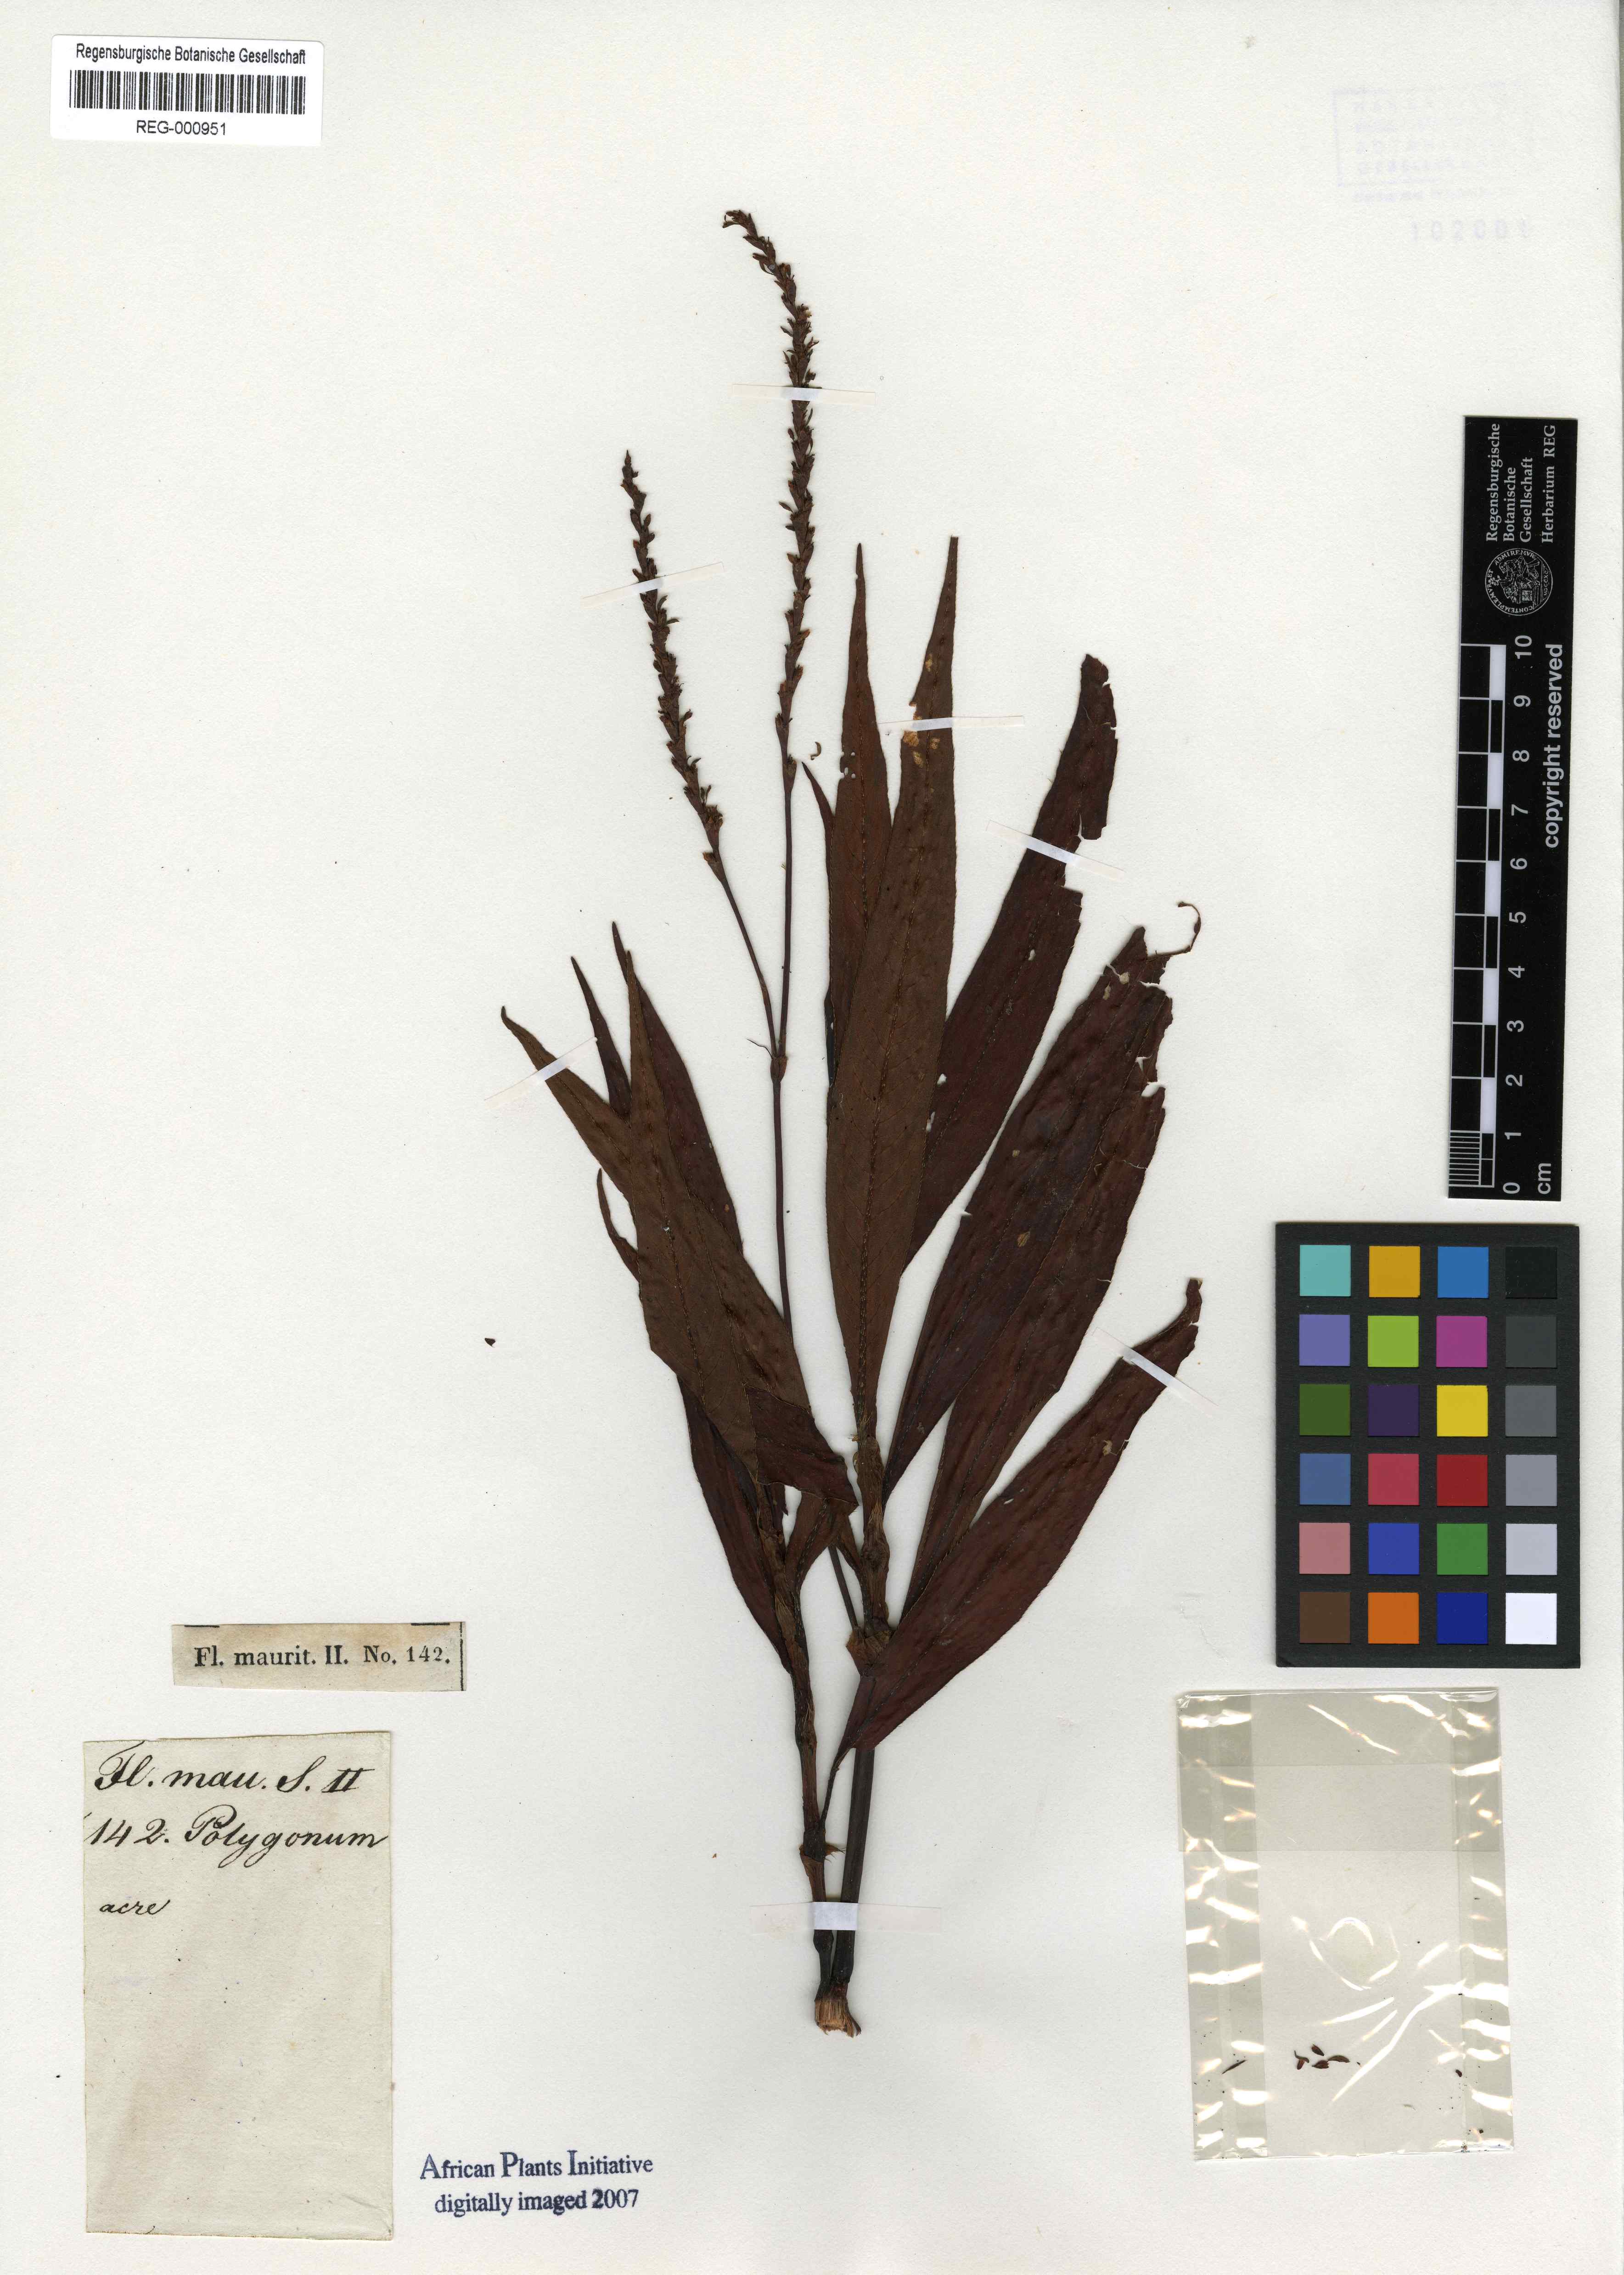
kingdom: Plantae
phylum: Tracheophyta
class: Magnoliopsida
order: Caryophyllales
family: Polygonaceae
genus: Persicaria
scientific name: Persicaria hydropiper
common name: Water-pepper
